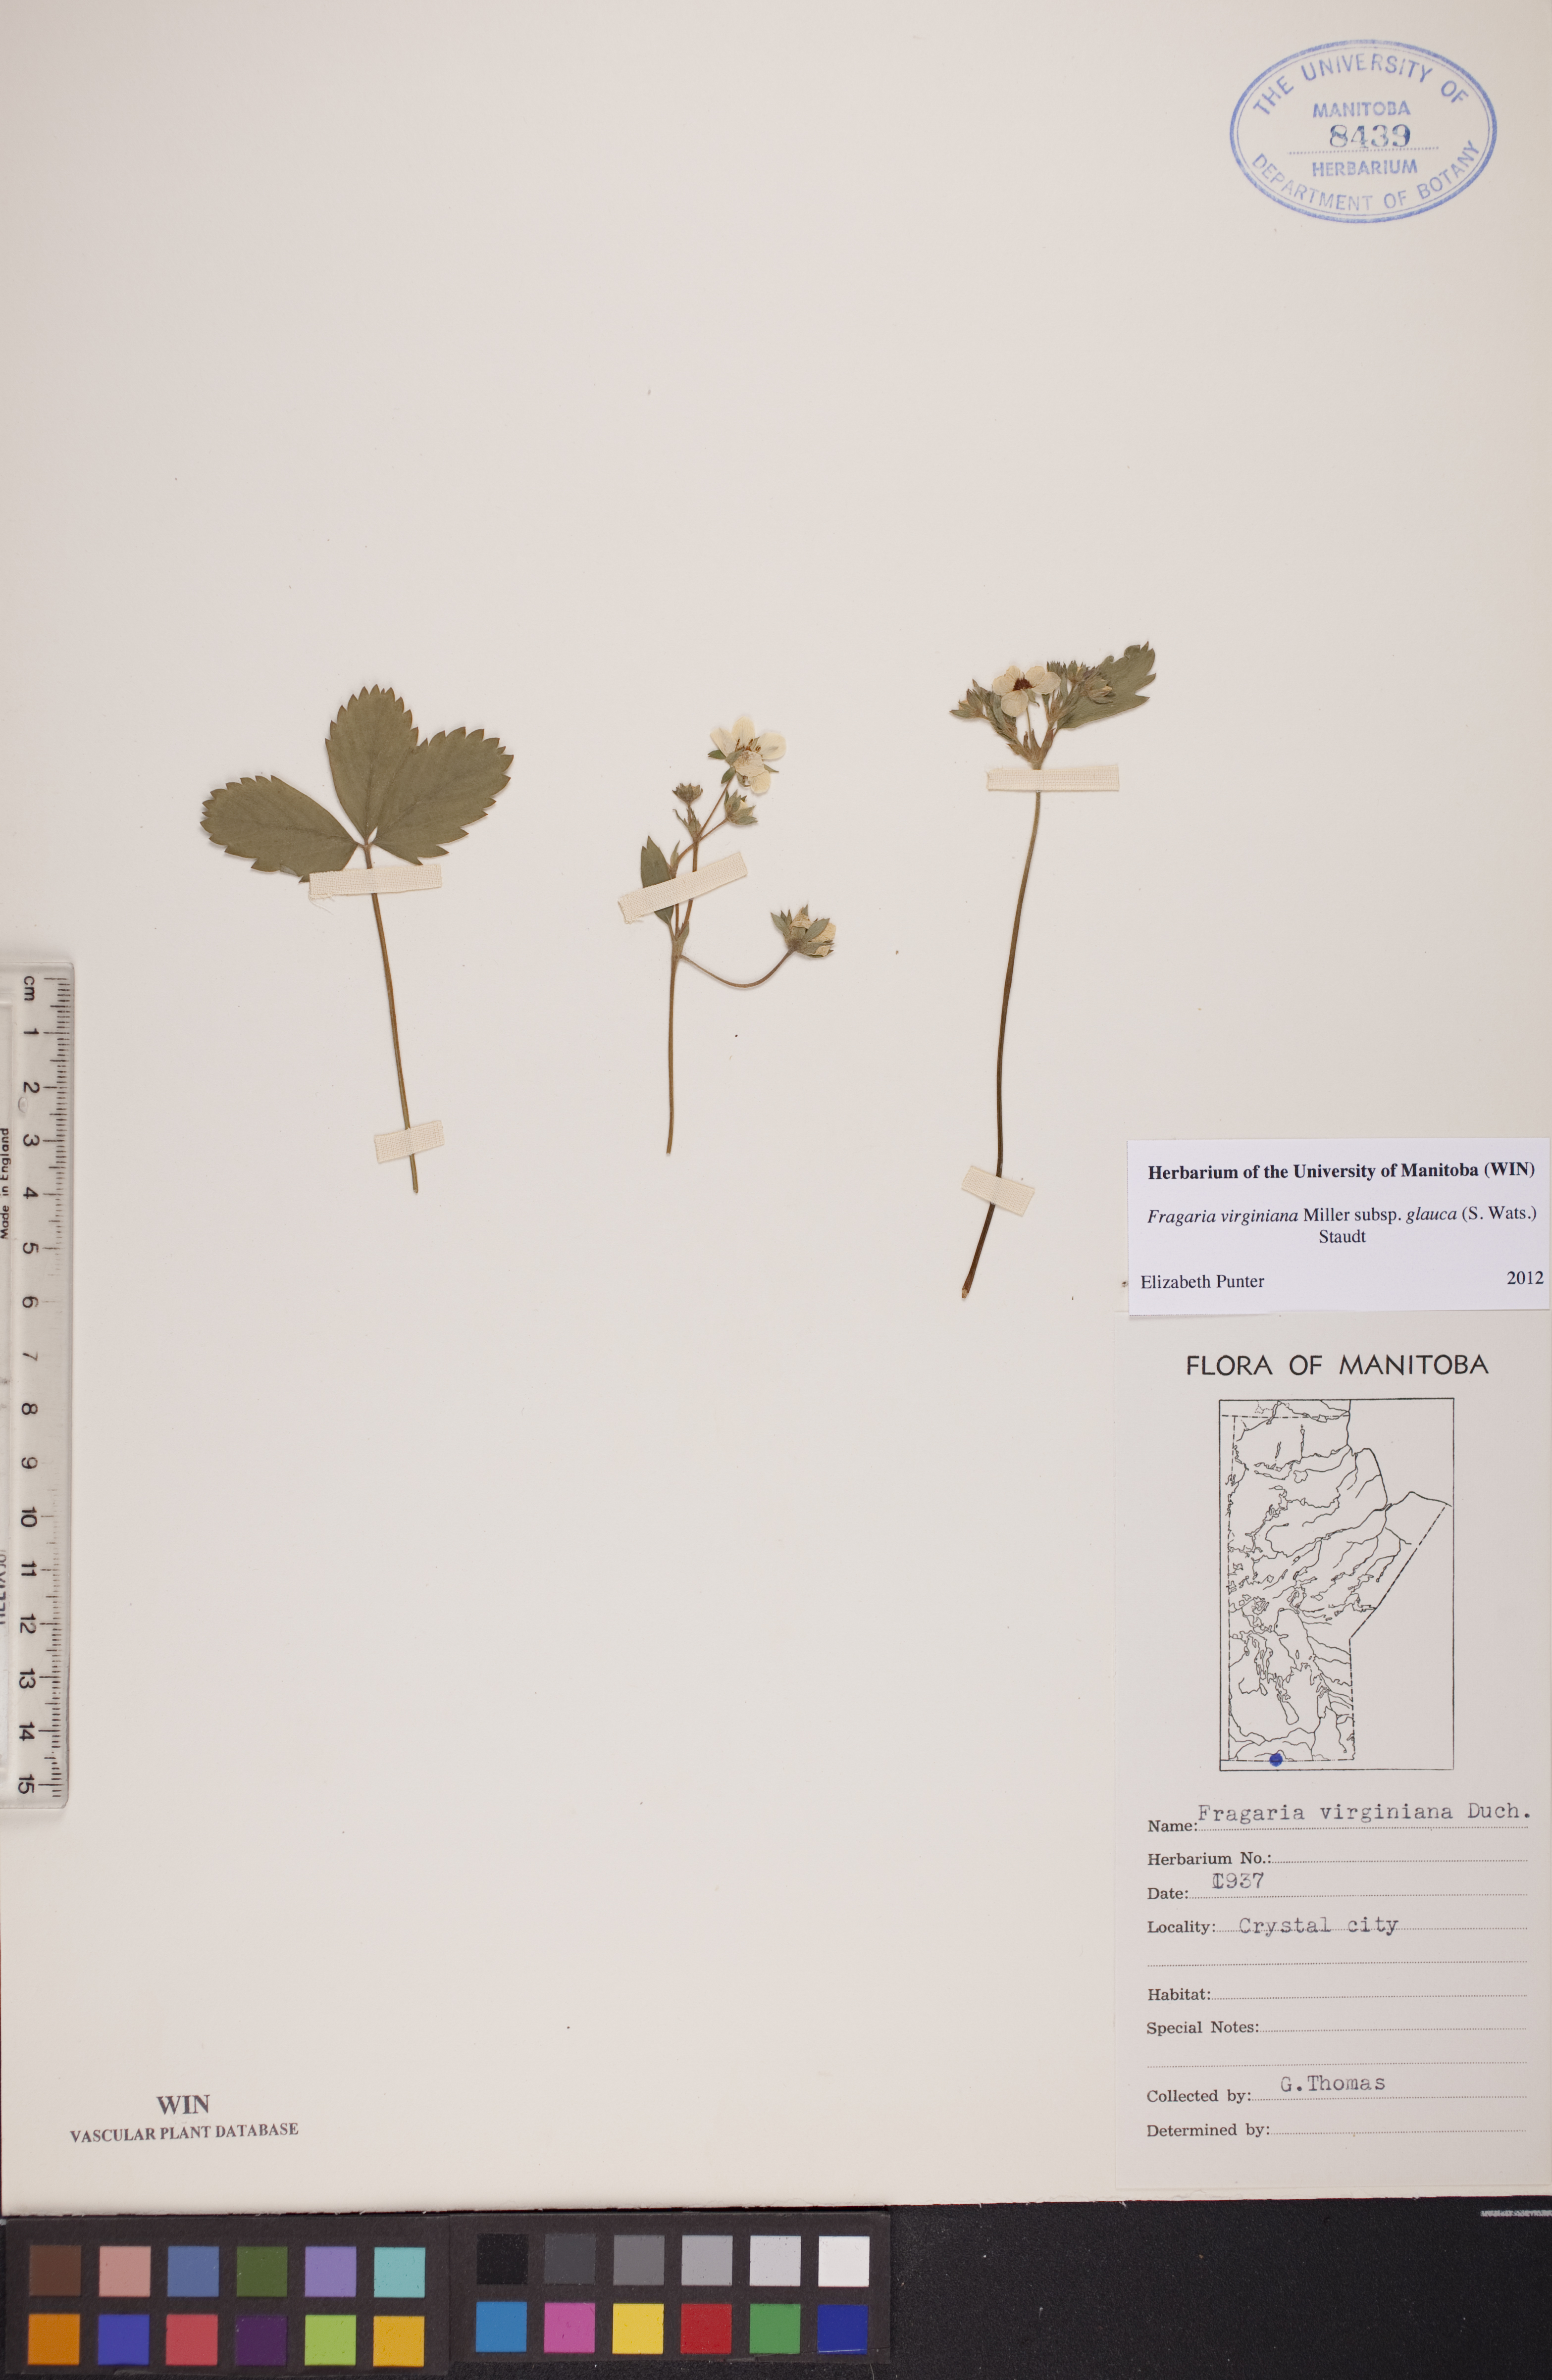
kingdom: Plantae
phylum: Tracheophyta
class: Magnoliopsida
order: Rosales
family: Rosaceae
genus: Fragaria
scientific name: Fragaria virginiana
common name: Thickleaved wild strawberry
